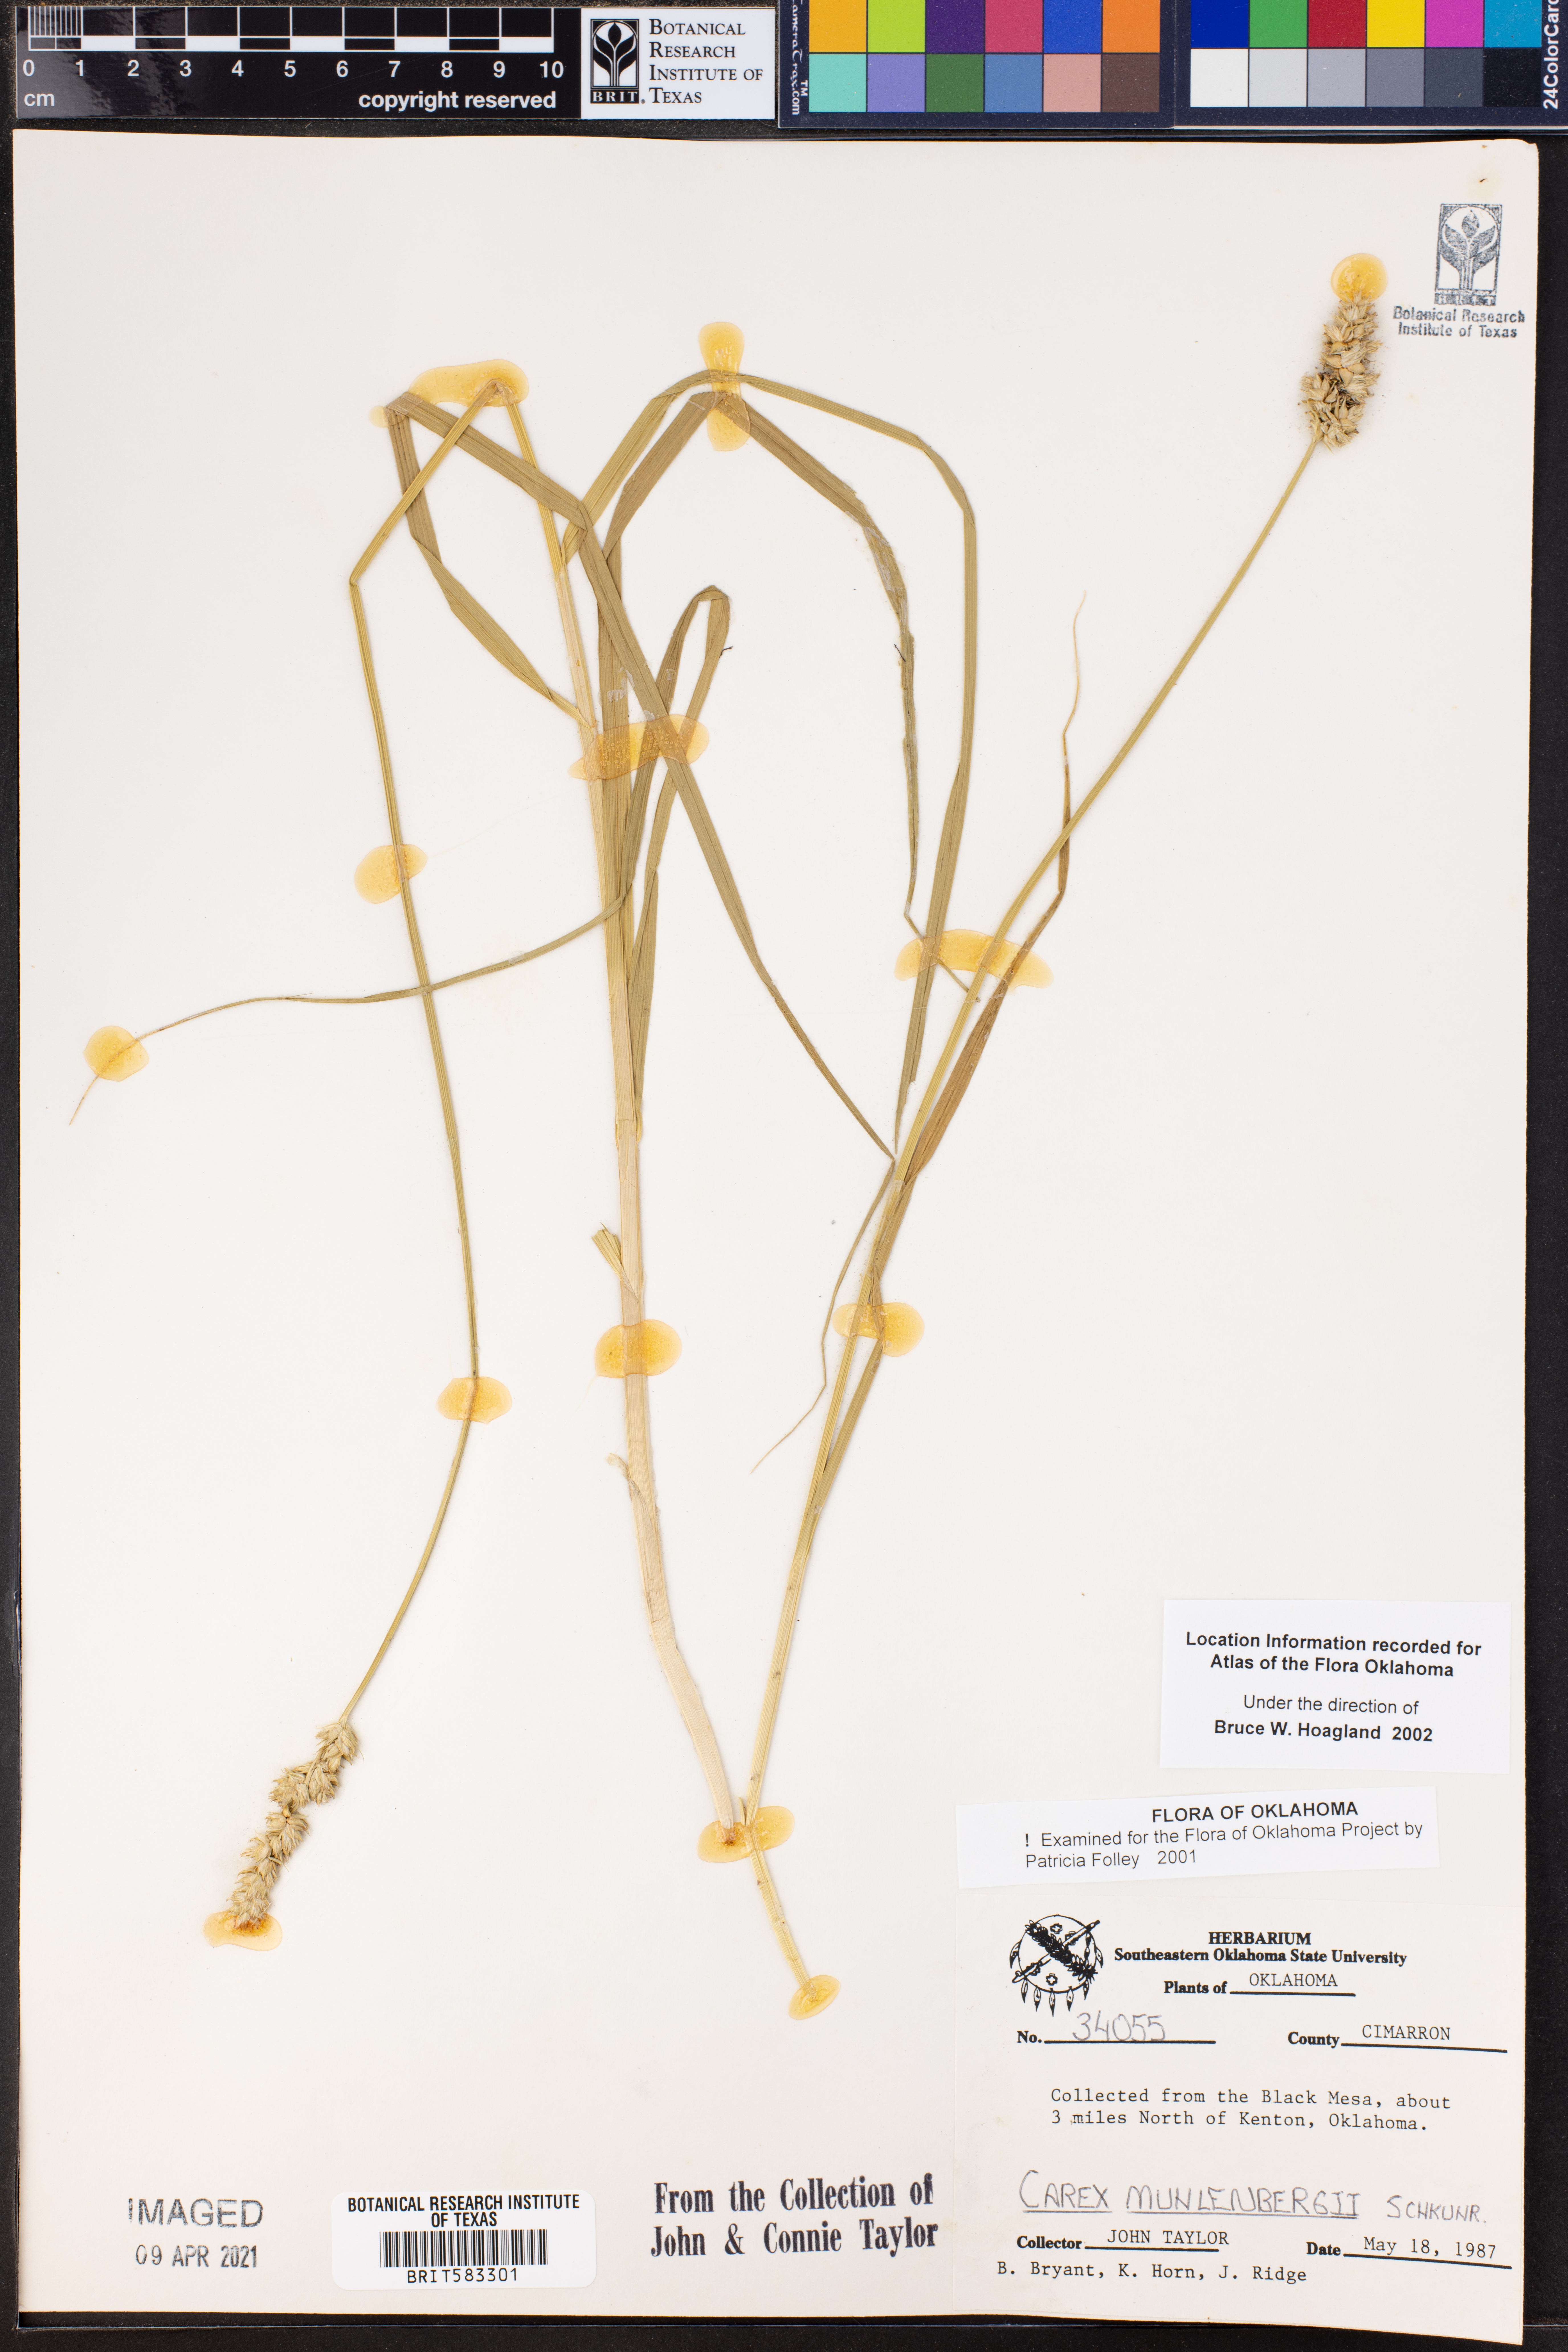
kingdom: Plantae
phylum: Tracheophyta
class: Liliopsida
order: Poales
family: Cyperaceae
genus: Carex
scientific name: Carex vulpinoidea
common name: American fox-sedge
